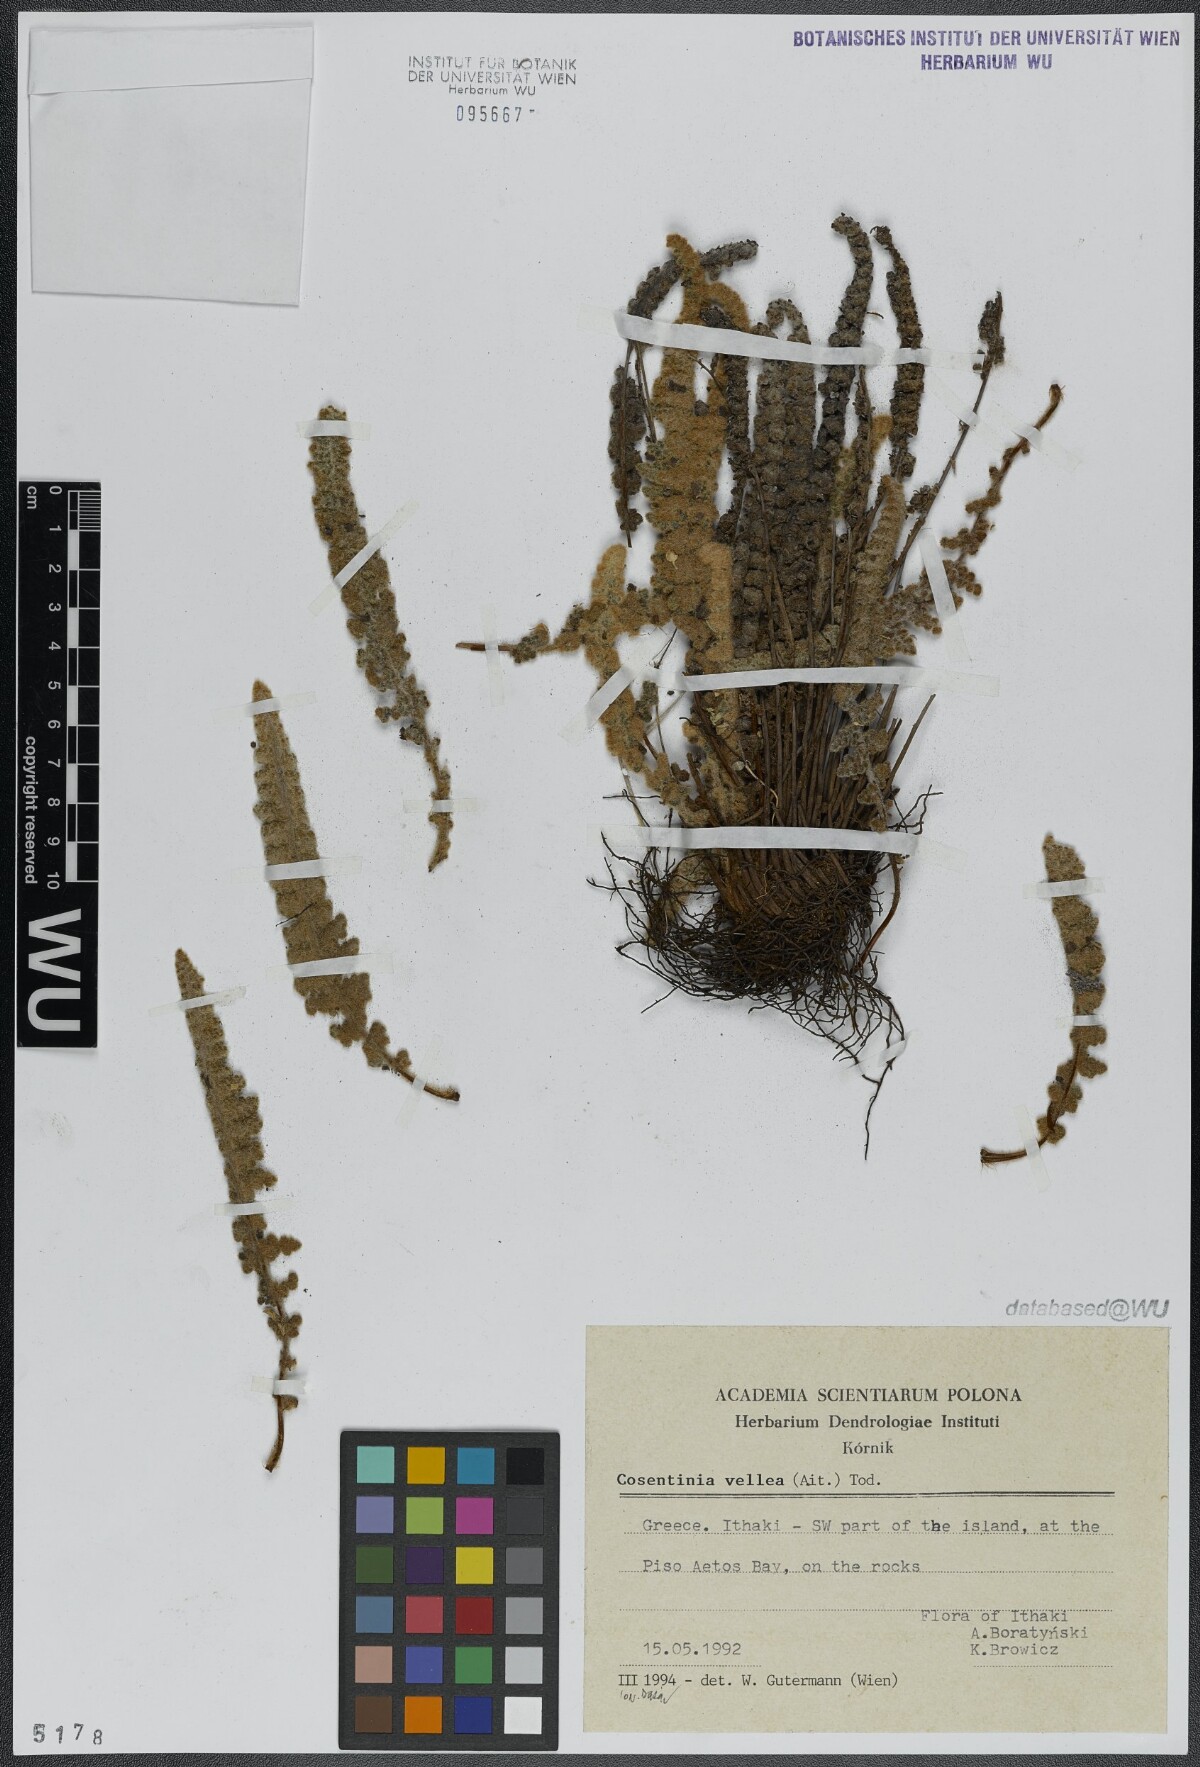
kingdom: Plantae
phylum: Tracheophyta
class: Polypodiopsida
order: Polypodiales
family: Pteridaceae
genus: Cosentinia
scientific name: Cosentinia vellea
